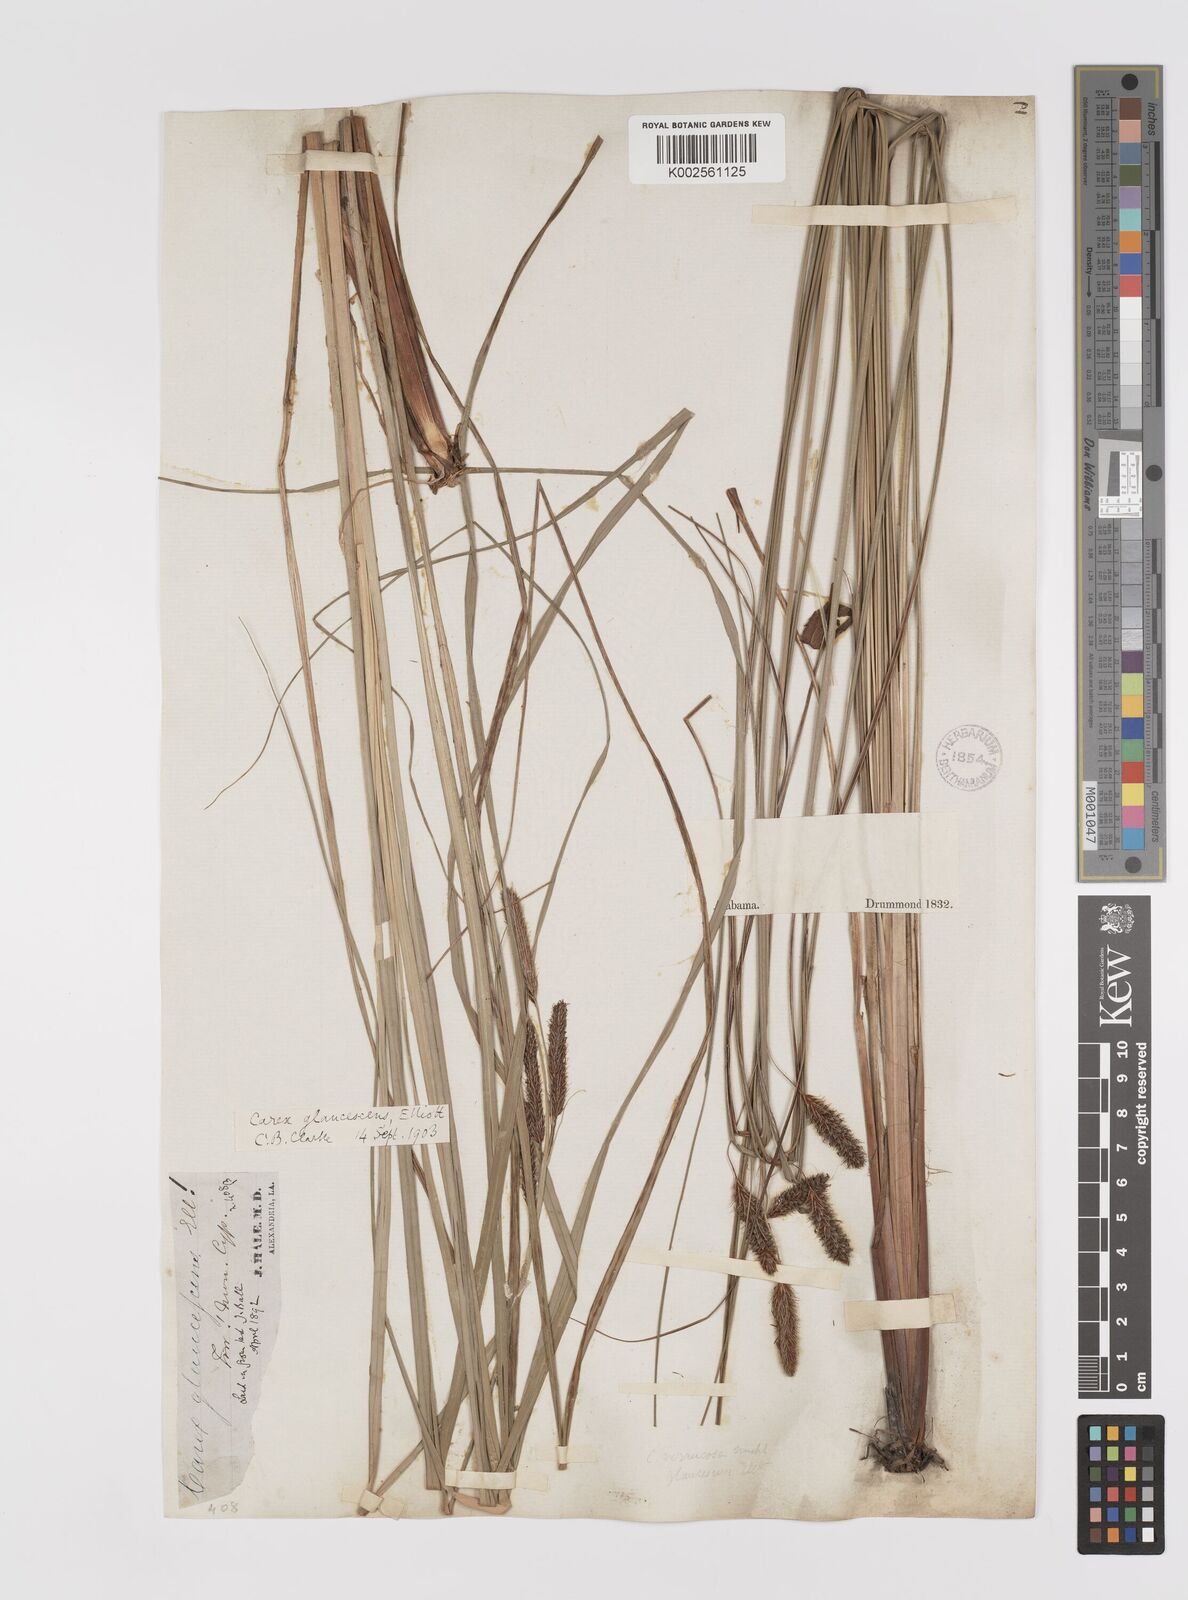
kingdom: Plantae
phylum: Tracheophyta
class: Liliopsida
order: Poales
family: Cyperaceae
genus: Carex
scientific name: Carex glaucescens
